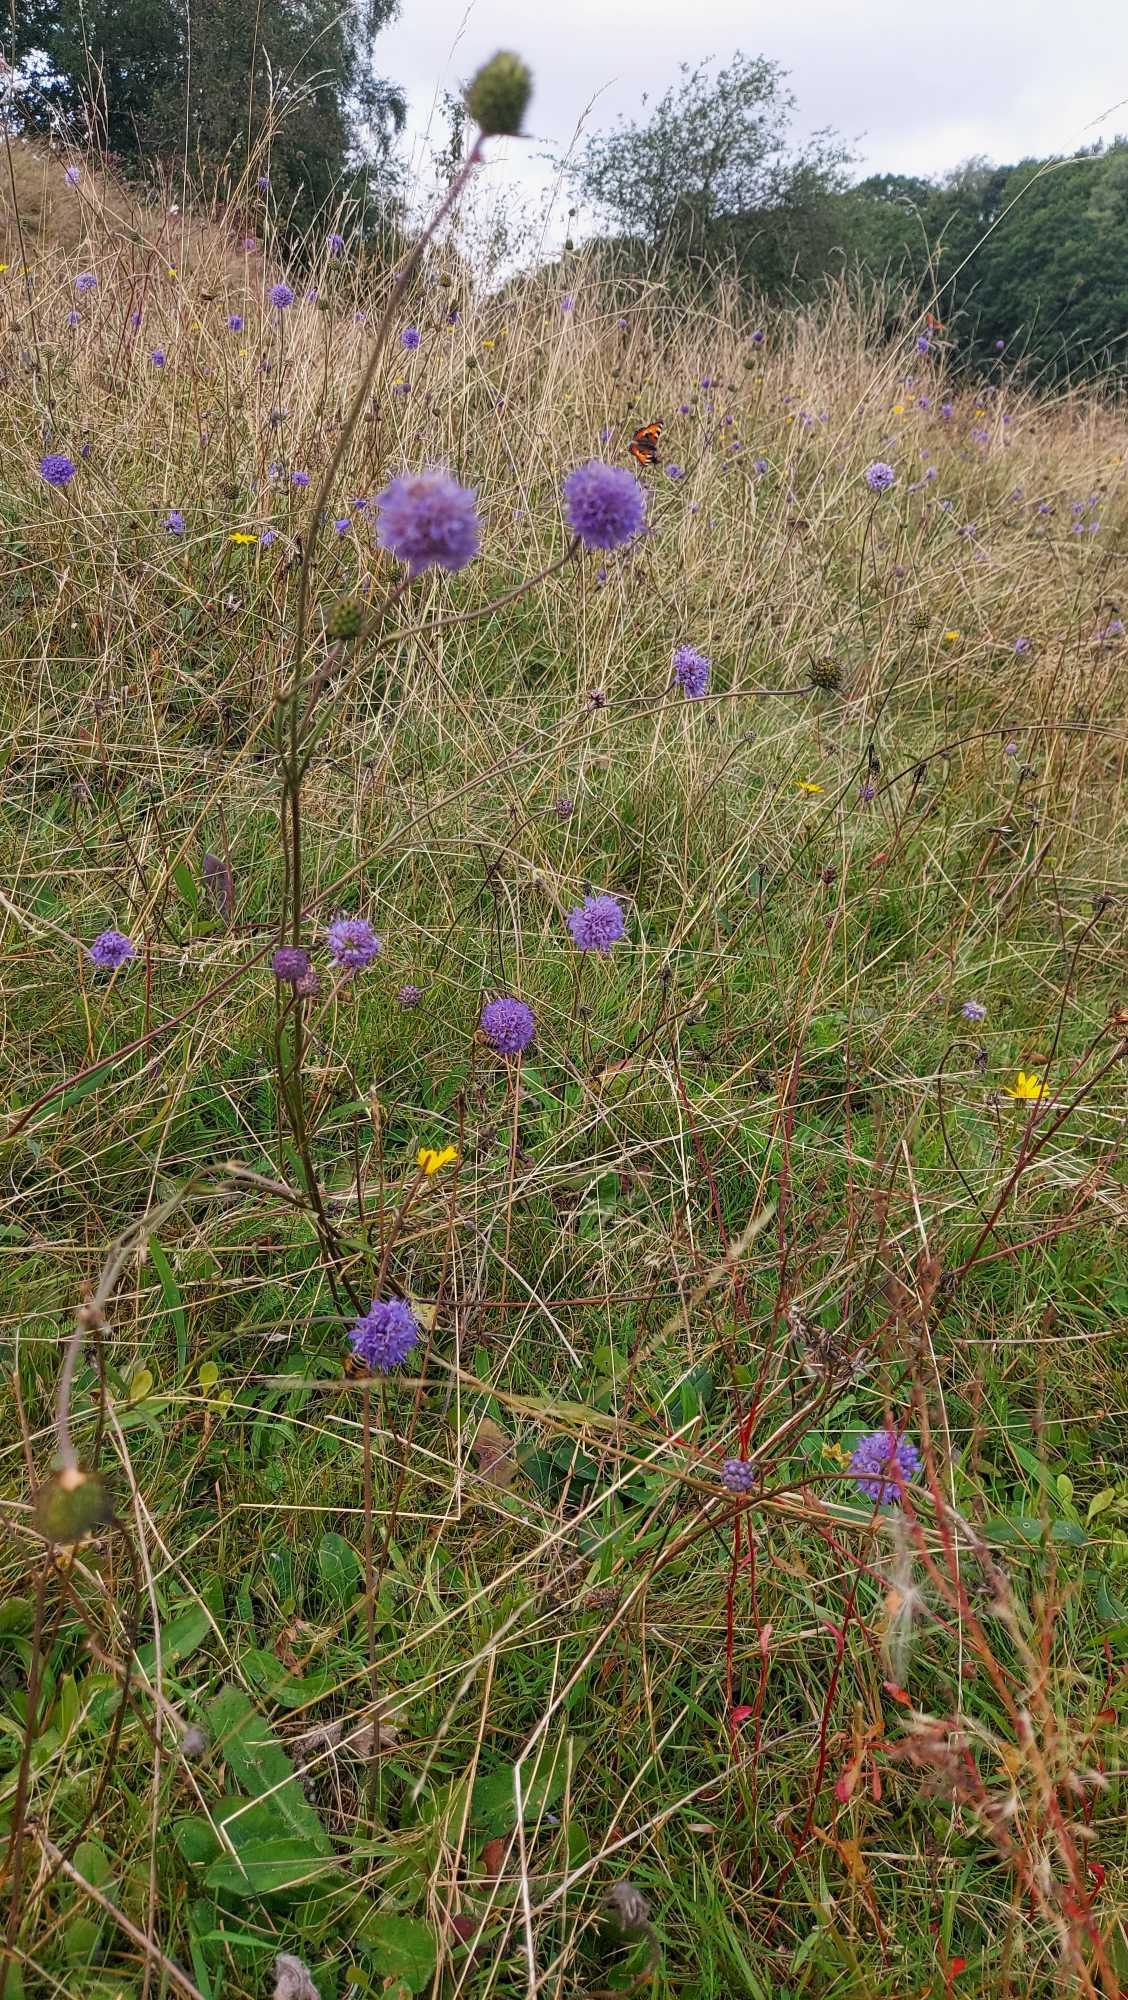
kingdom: Plantae
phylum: Tracheophyta
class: Magnoliopsida
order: Dipsacales
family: Caprifoliaceae
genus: Succisa
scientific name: Succisa pratensis
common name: Djævelsbid
